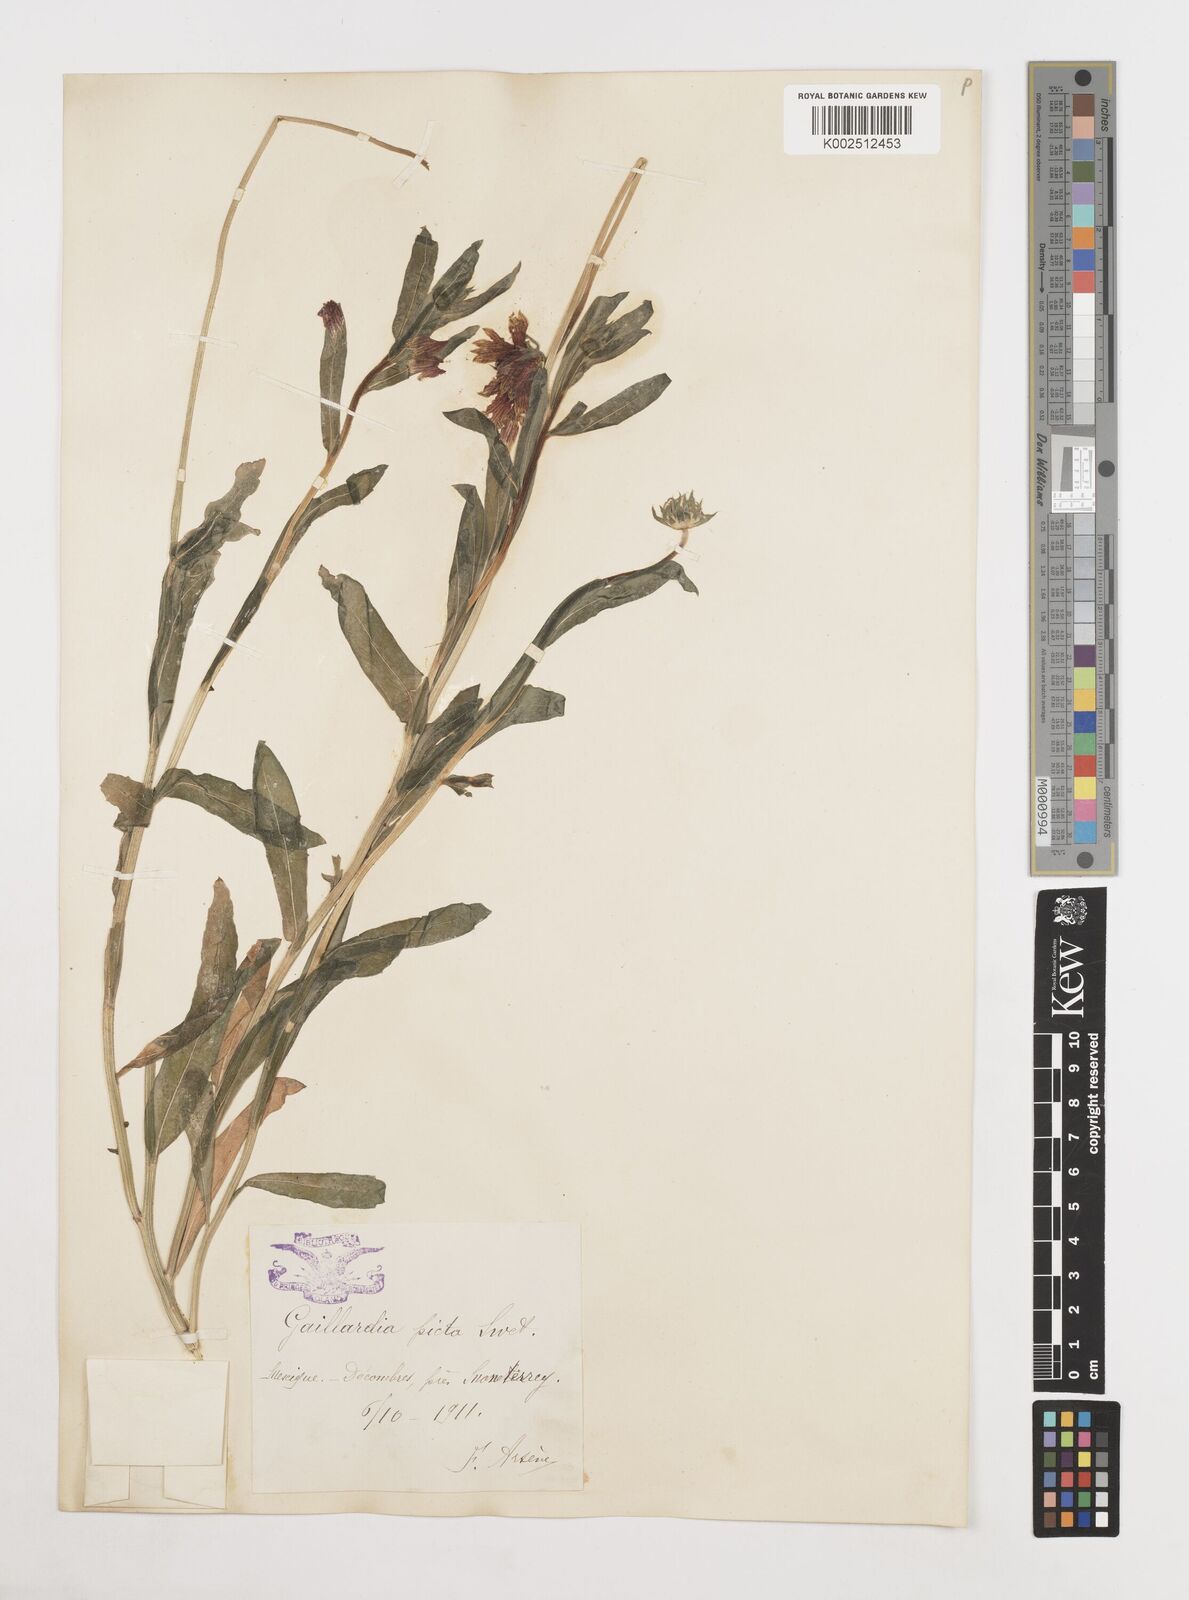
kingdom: Plantae
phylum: Tracheophyta
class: Magnoliopsida
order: Asterales
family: Asteraceae
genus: Gaillardia
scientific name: Gaillardia pulchella
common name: Firewheel
